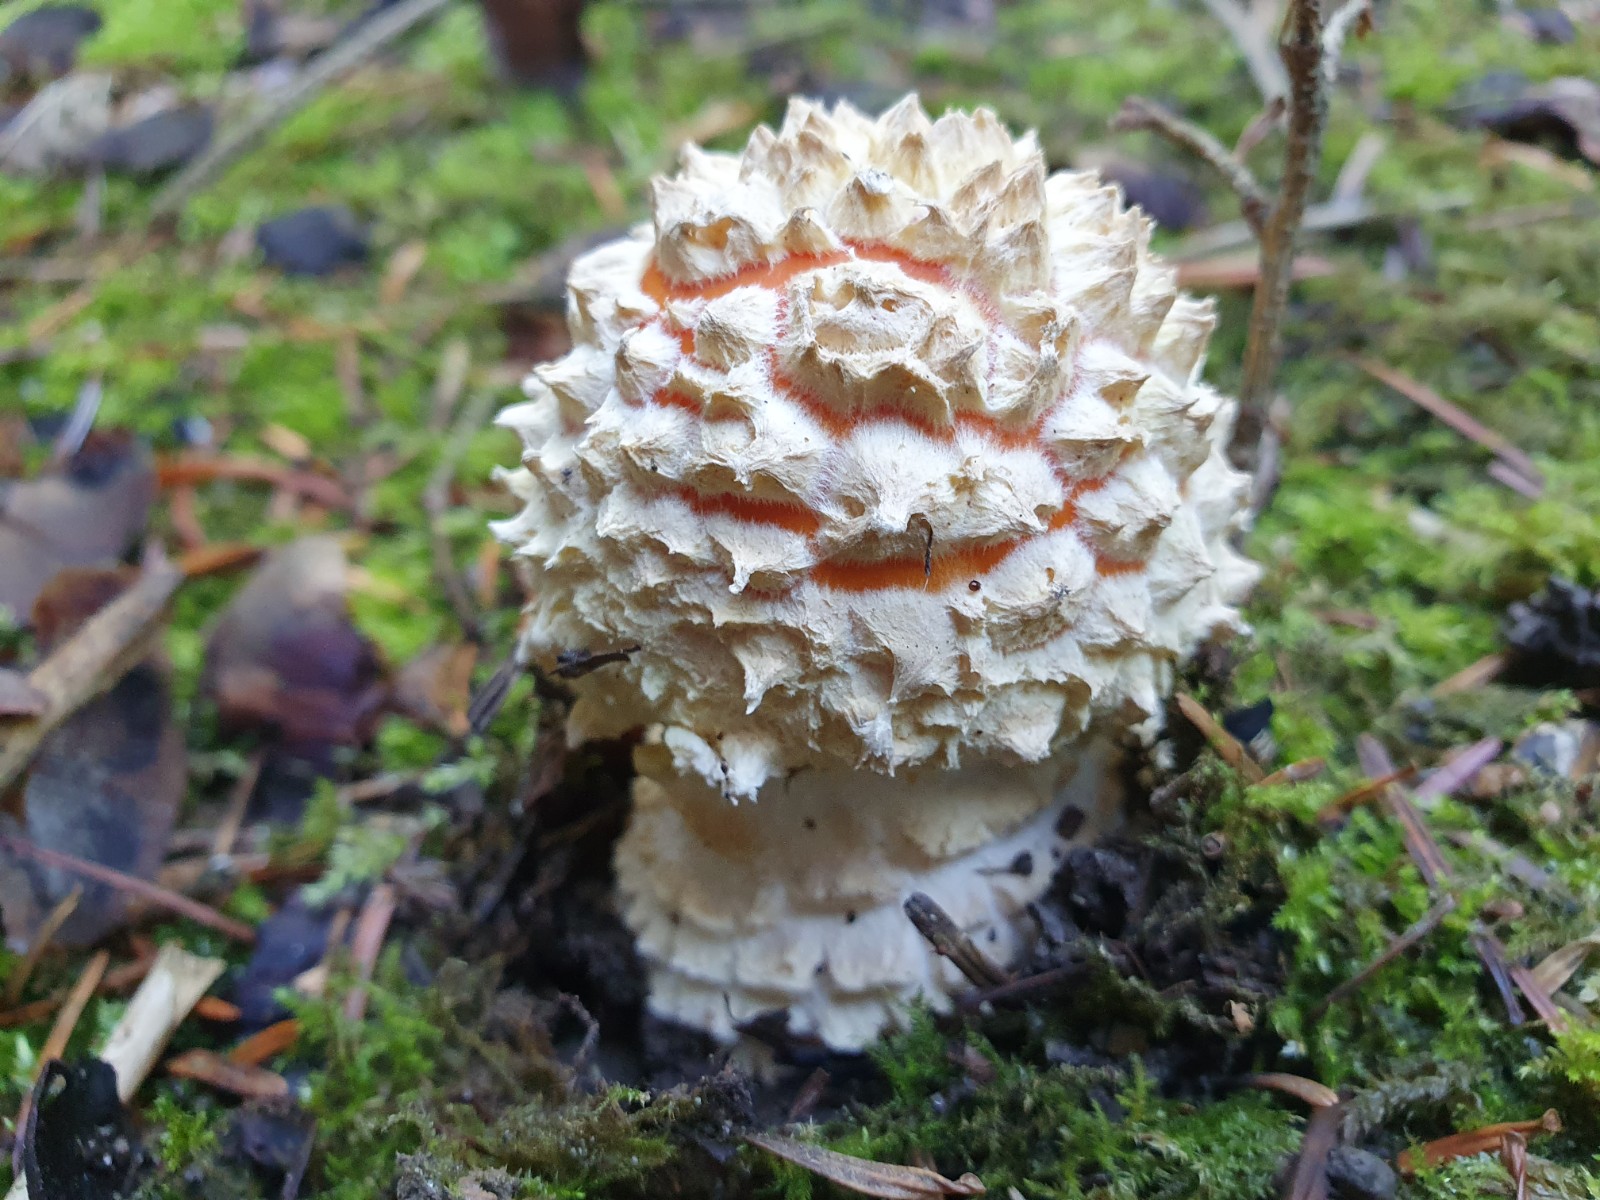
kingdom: Fungi
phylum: Basidiomycota
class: Agaricomycetes
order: Agaricales
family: Amanitaceae
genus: Amanita
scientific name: Amanita muscaria
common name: rød fluesvamp
